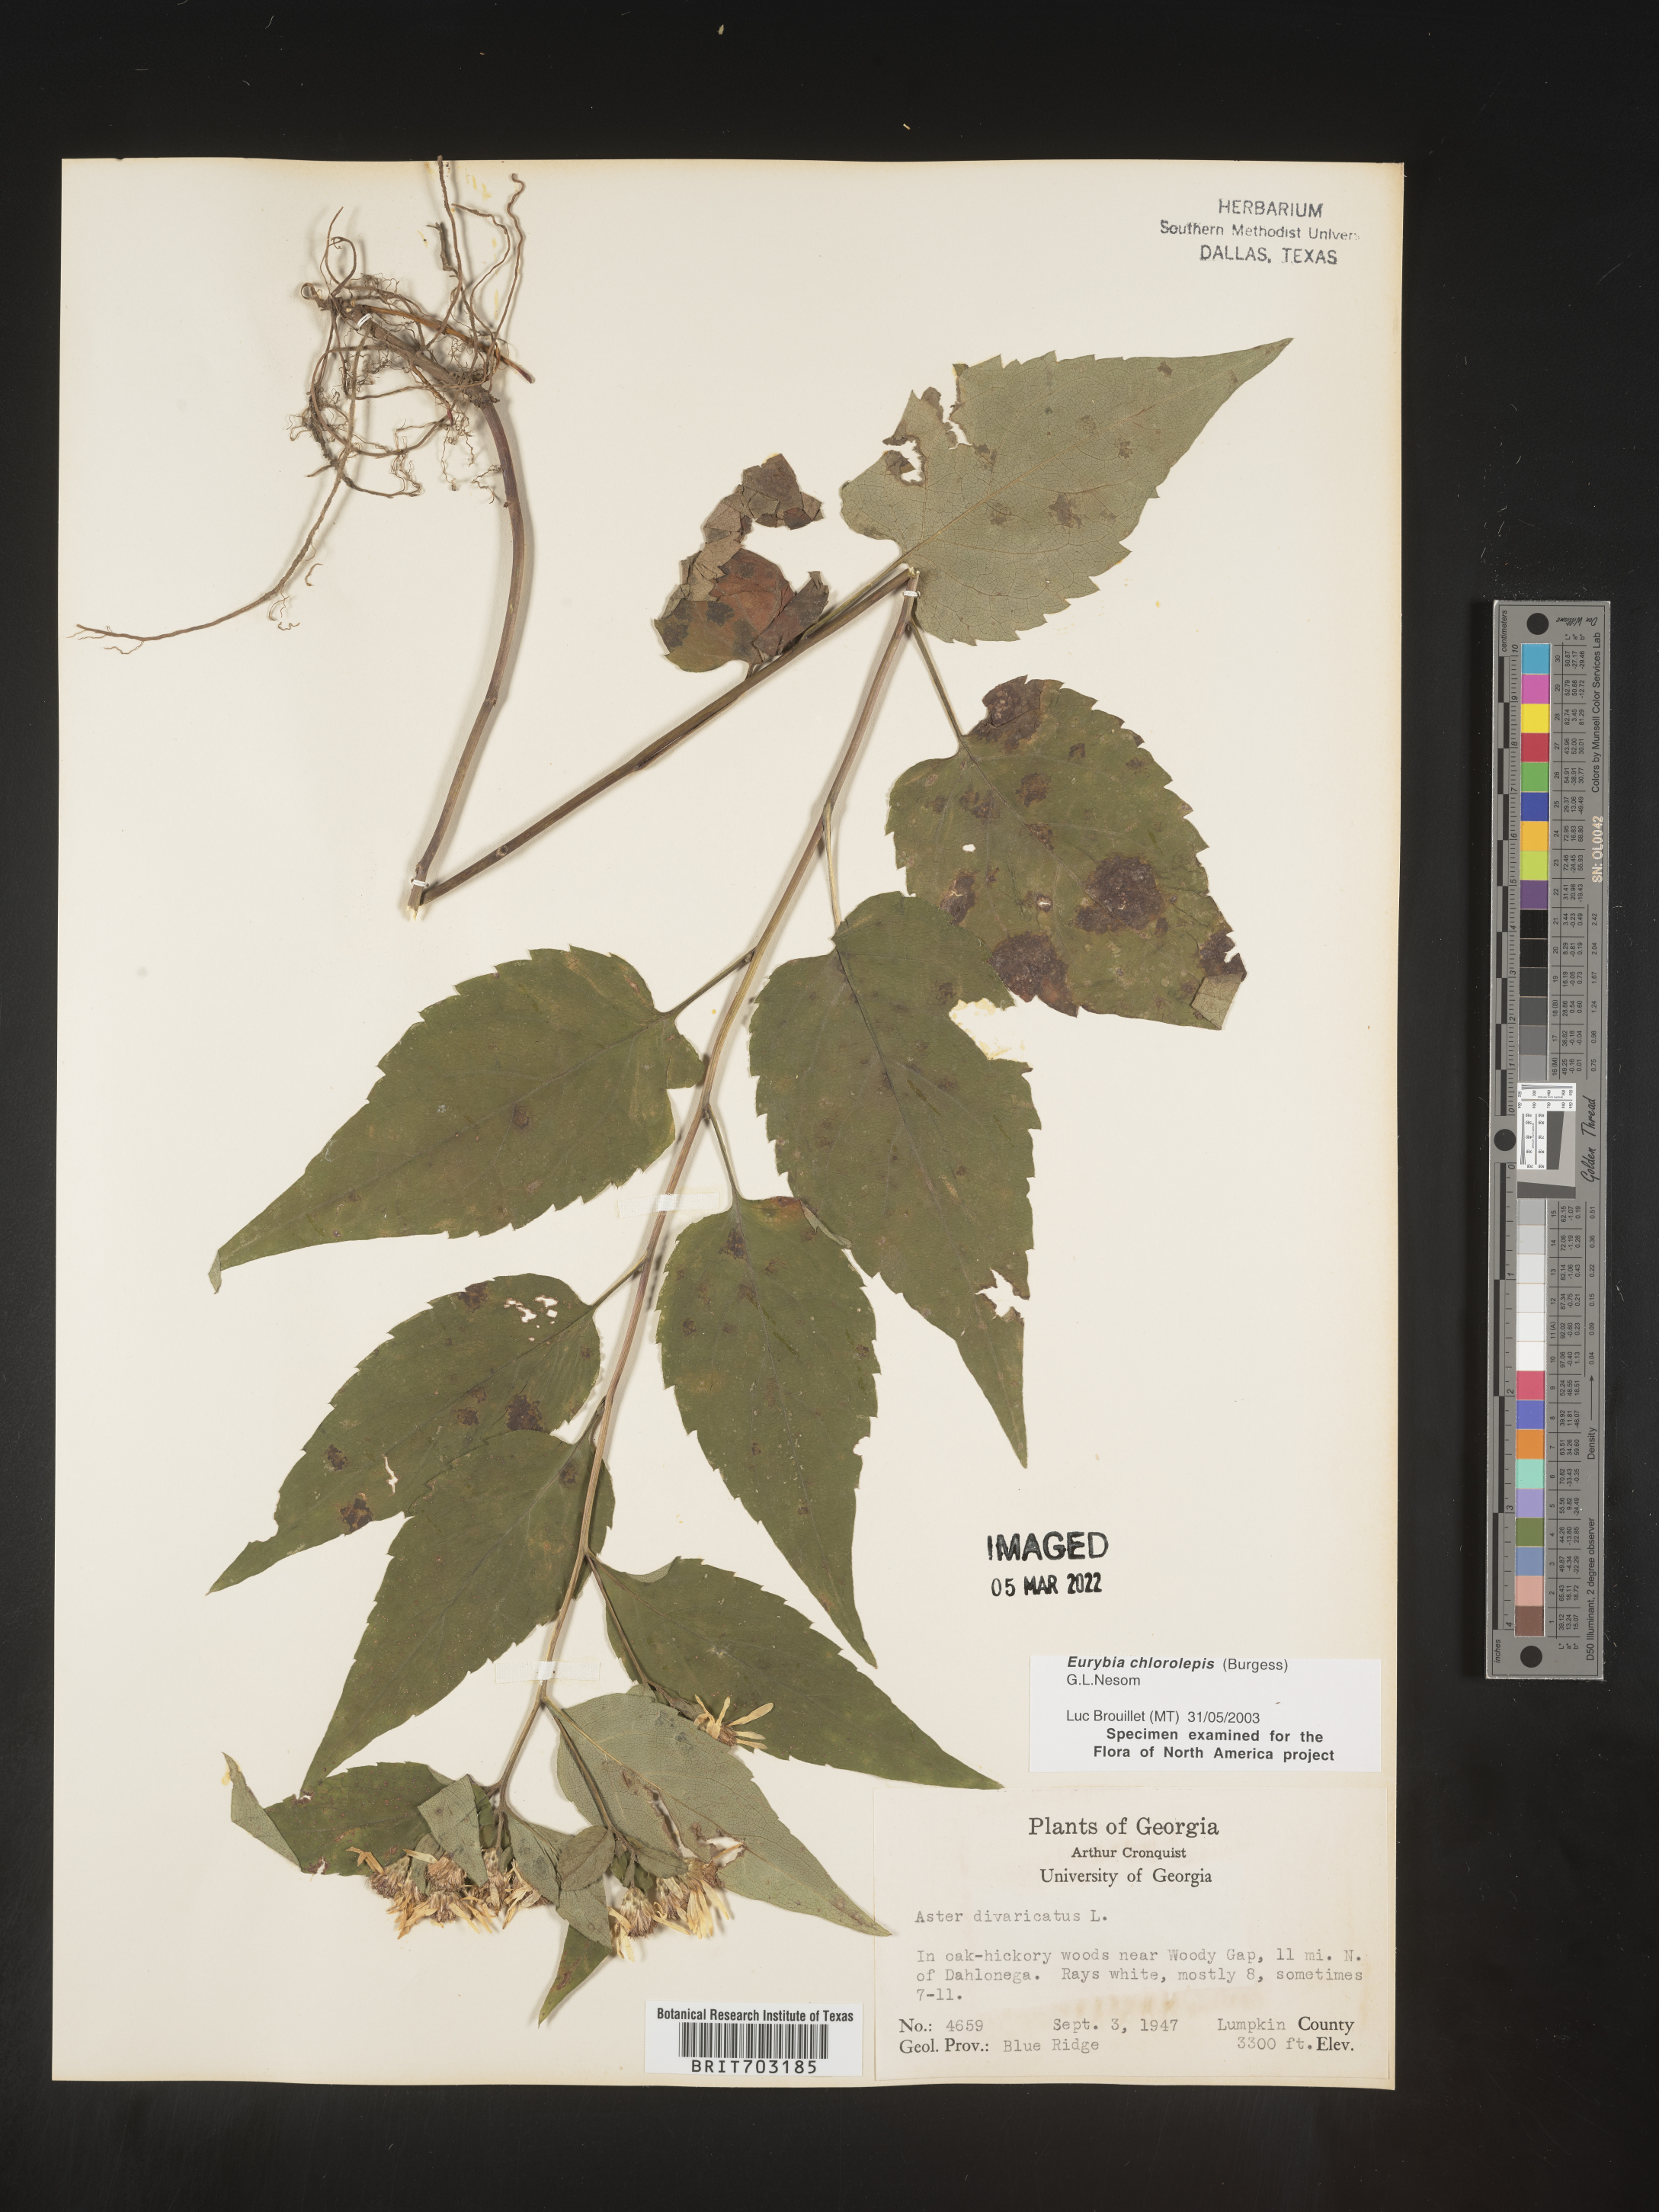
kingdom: Plantae
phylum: Tracheophyta
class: Magnoliopsida
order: Asterales
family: Asteraceae
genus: Eurybia
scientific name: Eurybia chlorolepis
